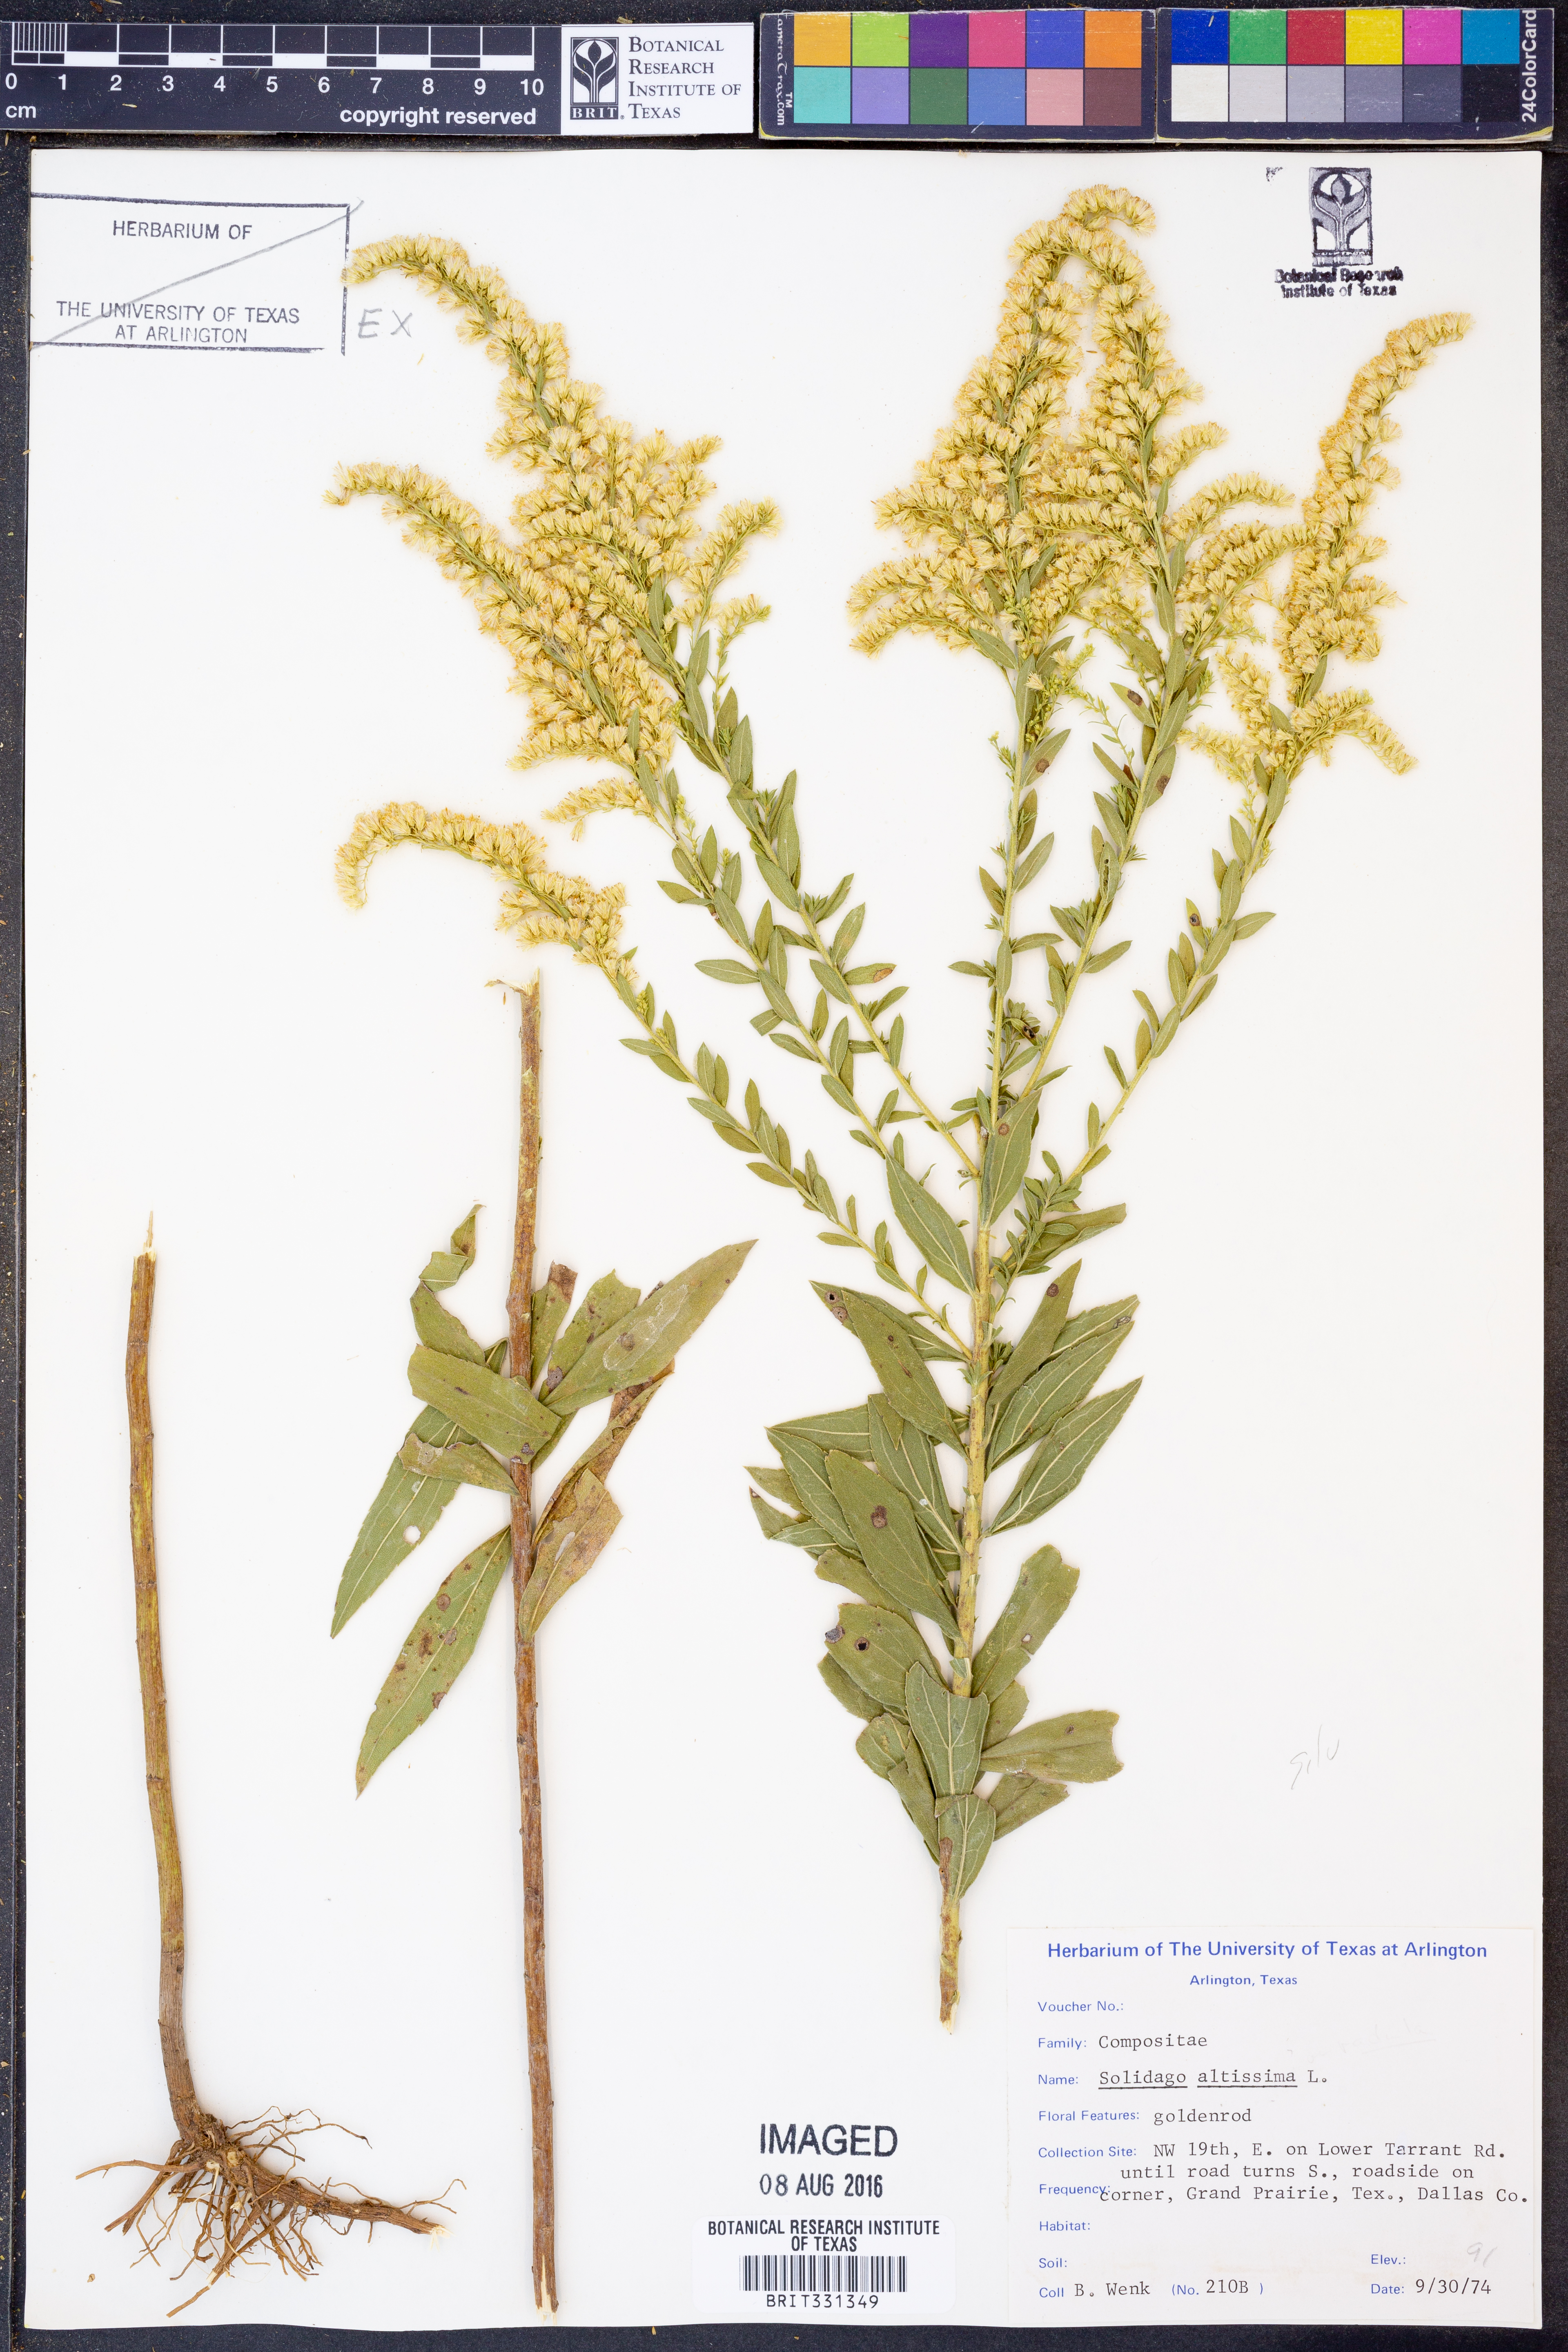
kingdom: Plantae
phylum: Tracheophyta
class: Magnoliopsida
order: Asterales
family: Asteraceae
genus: Solidago
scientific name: Solidago altissima
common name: Late goldenrod
